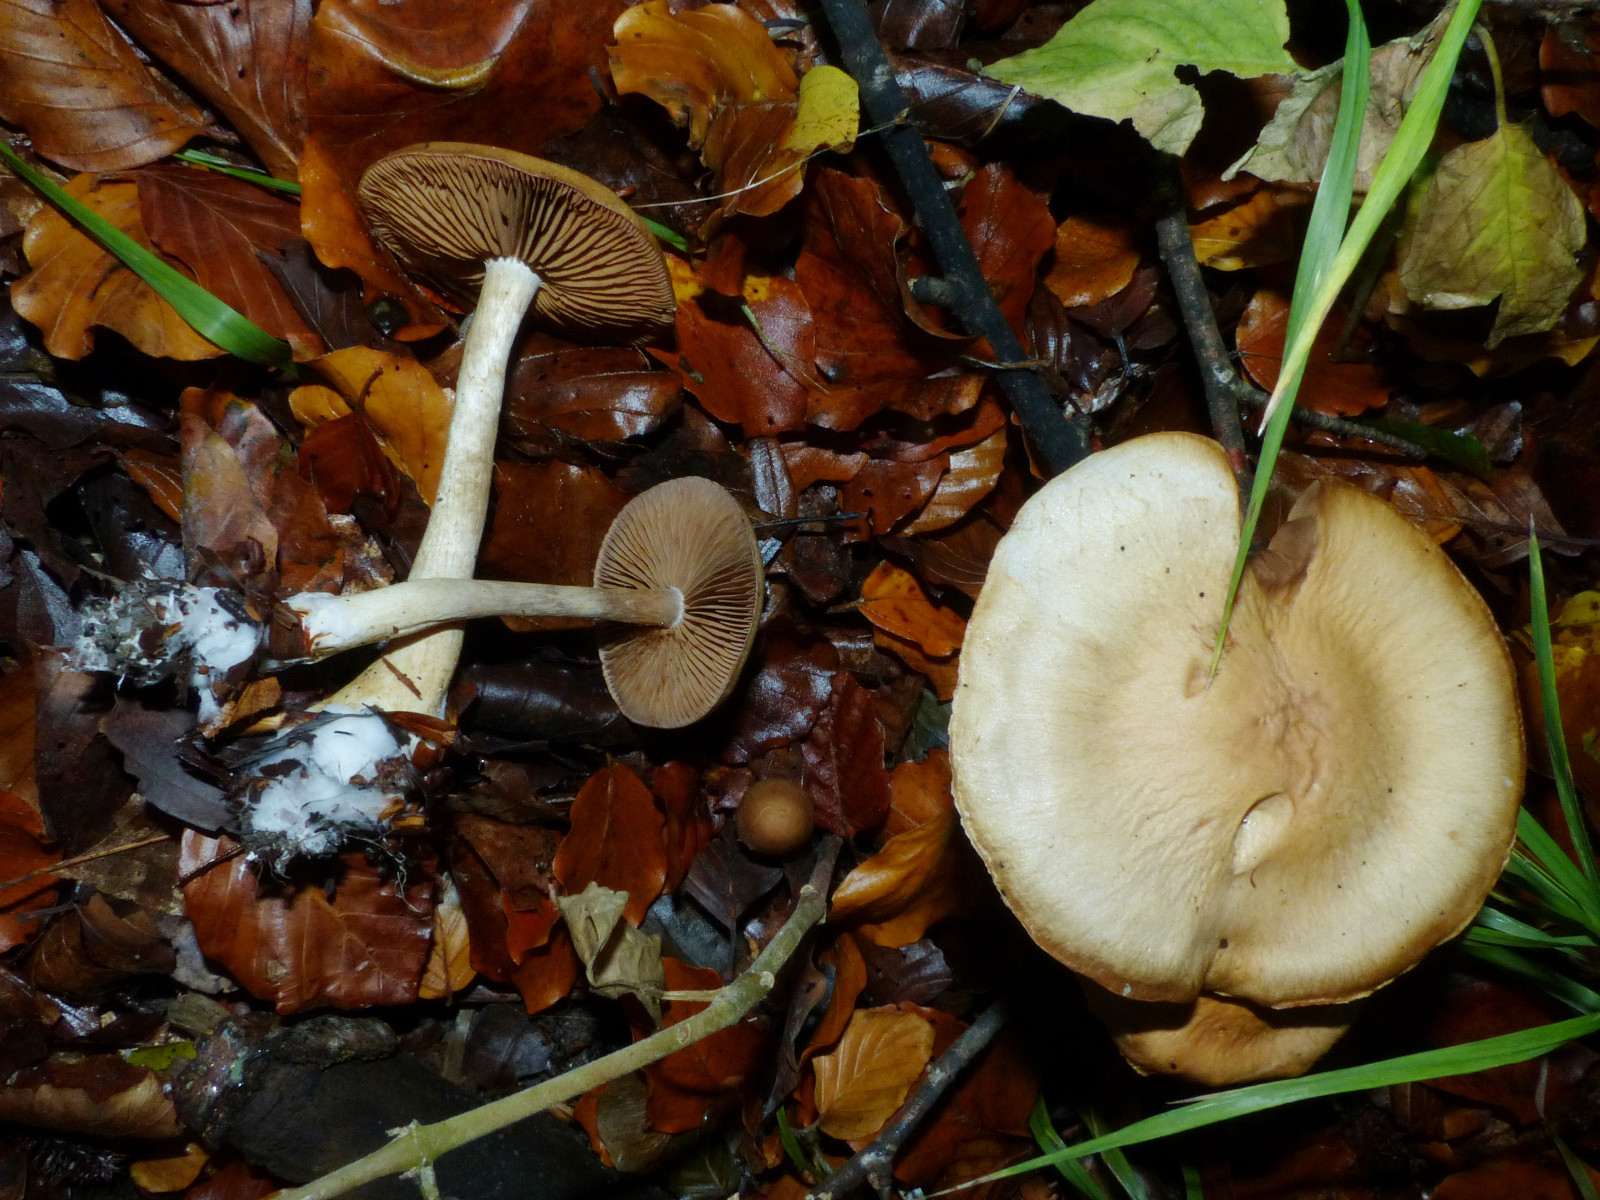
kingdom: Fungi
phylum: Basidiomycota
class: Agaricomycetes
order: Agaricales
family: Cortinariaceae
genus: Cortinarius
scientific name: Cortinarius
